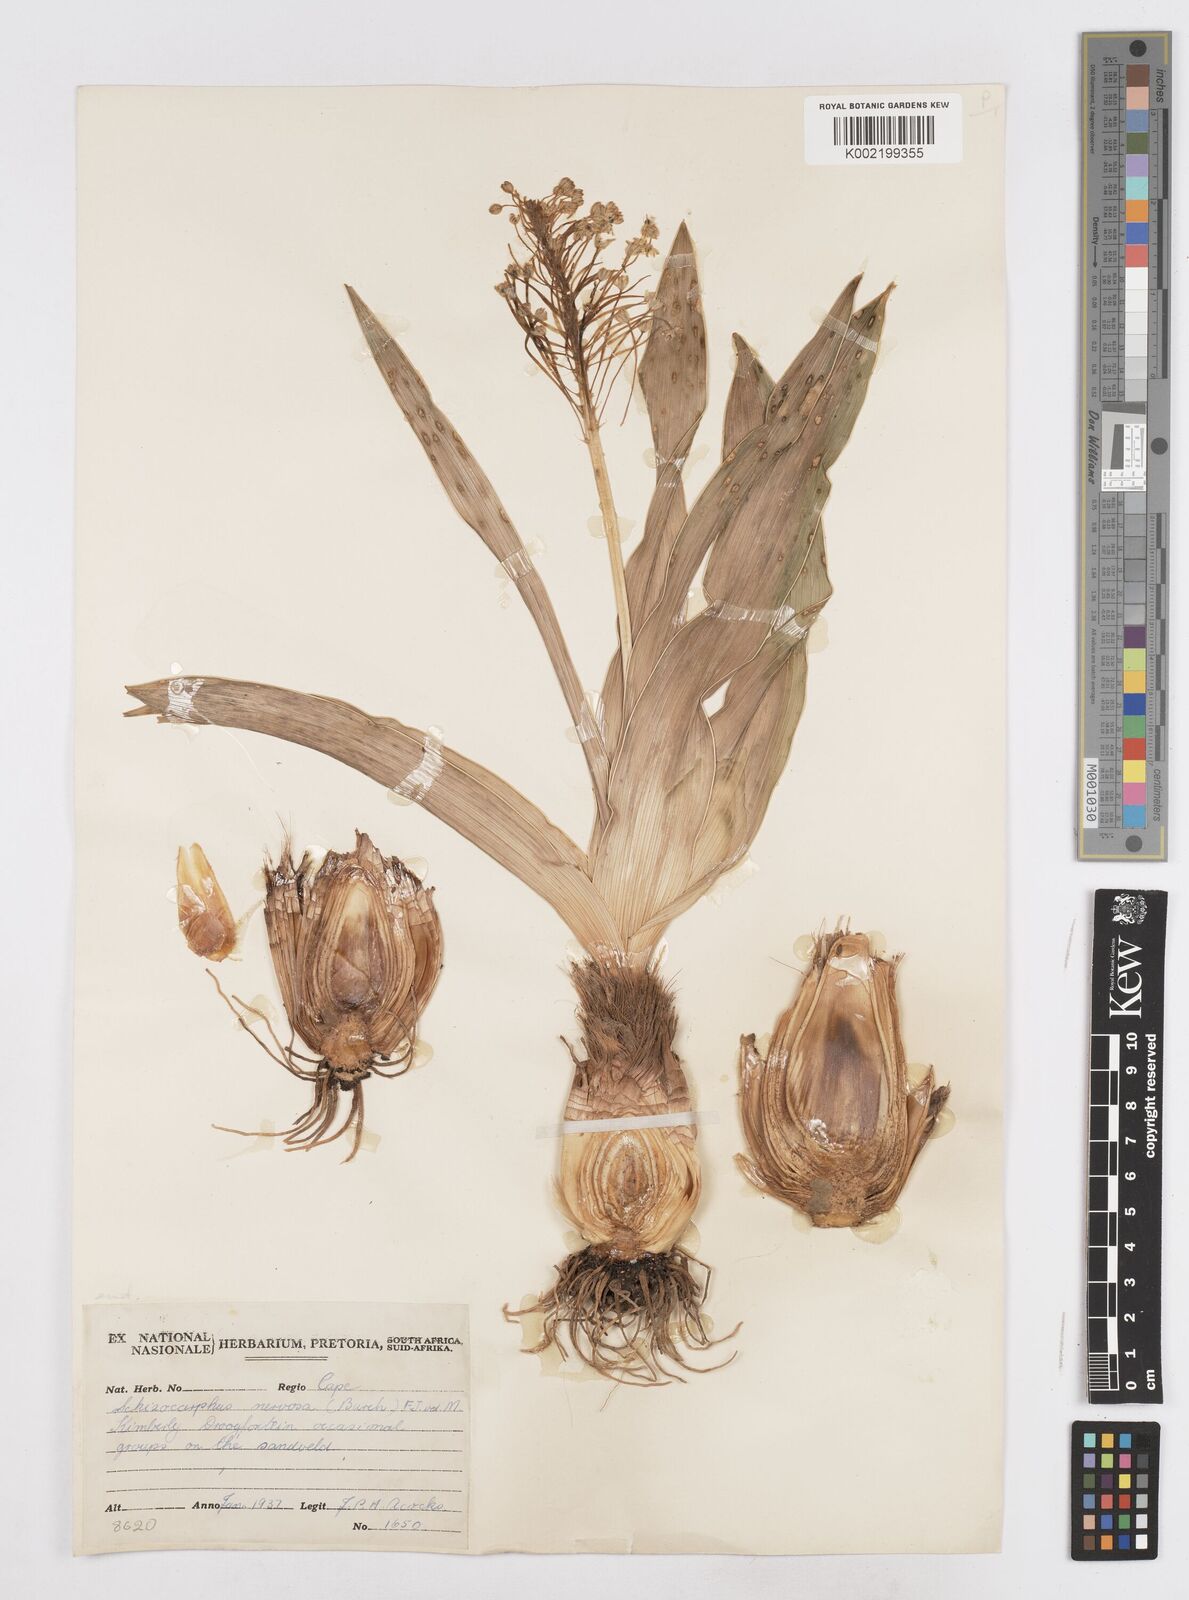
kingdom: Plantae
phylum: Tracheophyta
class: Liliopsida
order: Asparagales
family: Asparagaceae
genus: Schizocarphus
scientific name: Schizocarphus nervosus
